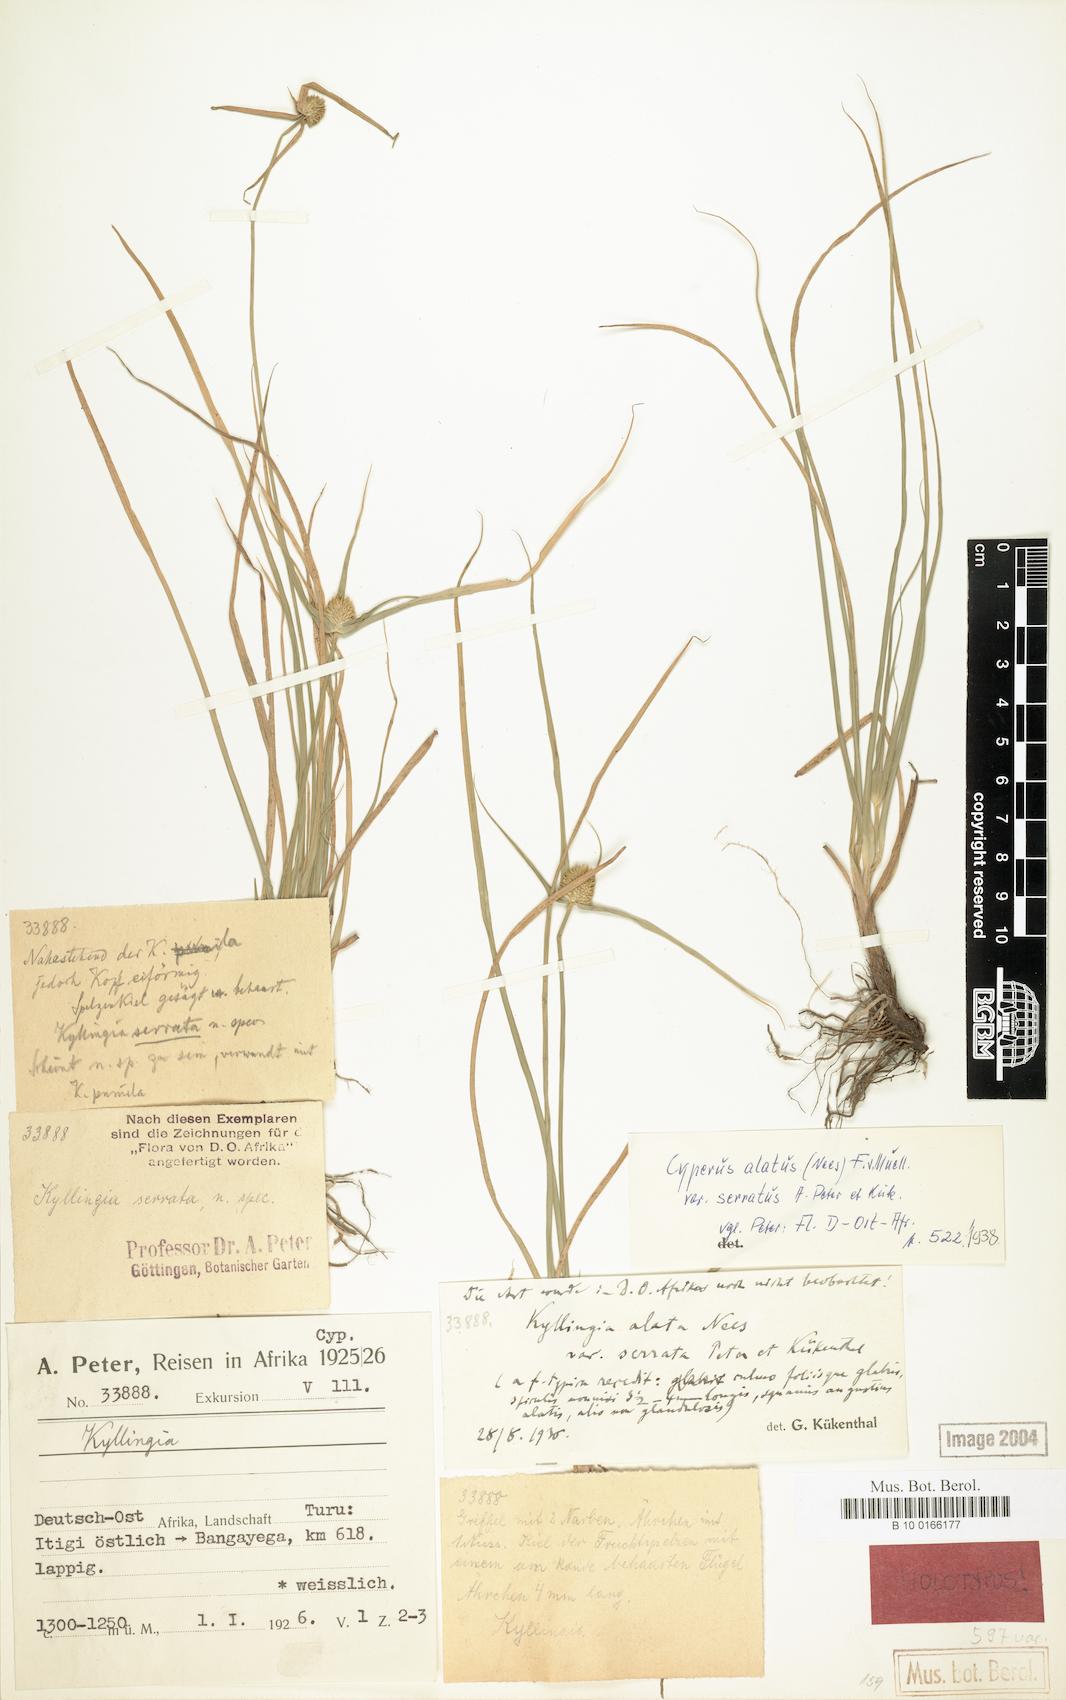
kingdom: Plantae
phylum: Tracheophyta
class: Liliopsida
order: Poales
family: Cyperaceae
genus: Cyperus
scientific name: Cyperus alatus
